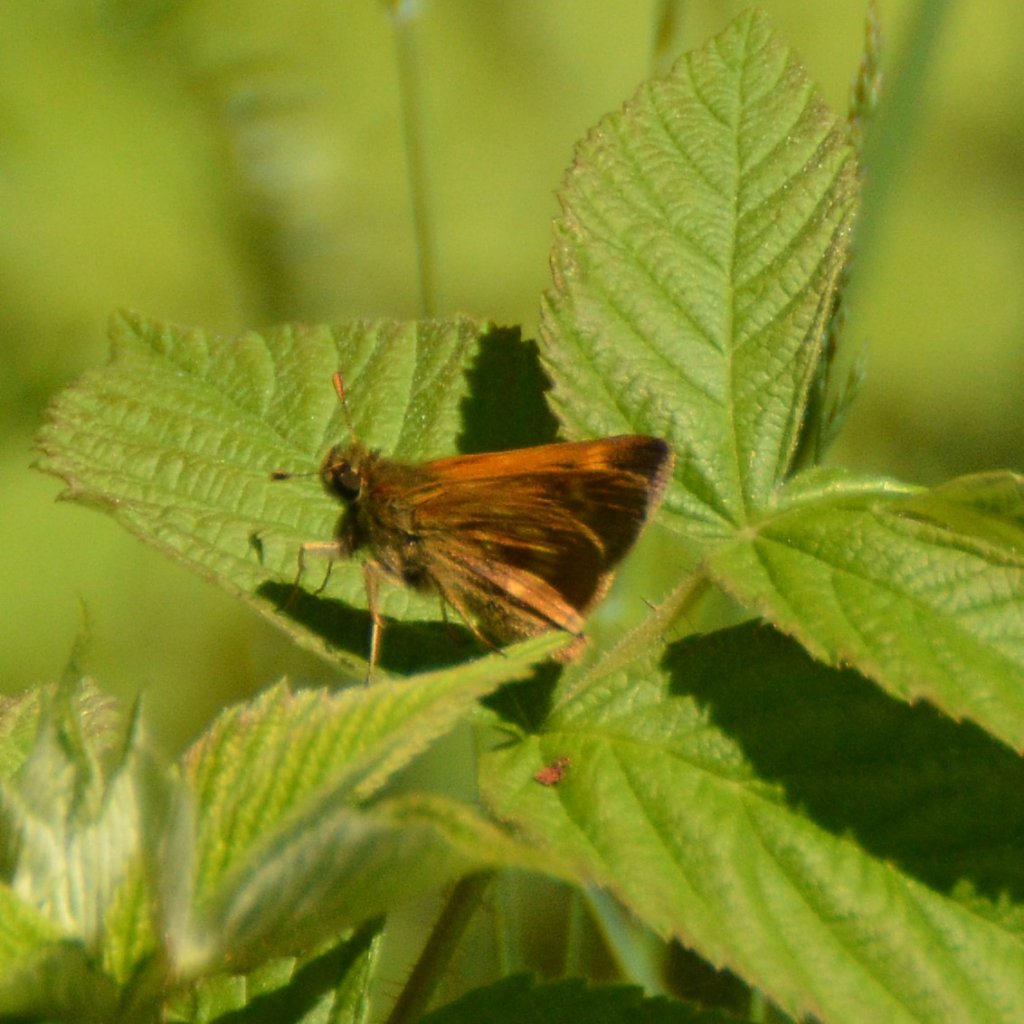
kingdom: Animalia
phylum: Arthropoda
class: Insecta
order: Lepidoptera
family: Hesperiidae
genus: Polites
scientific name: Polites
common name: Long Dash Skipper
